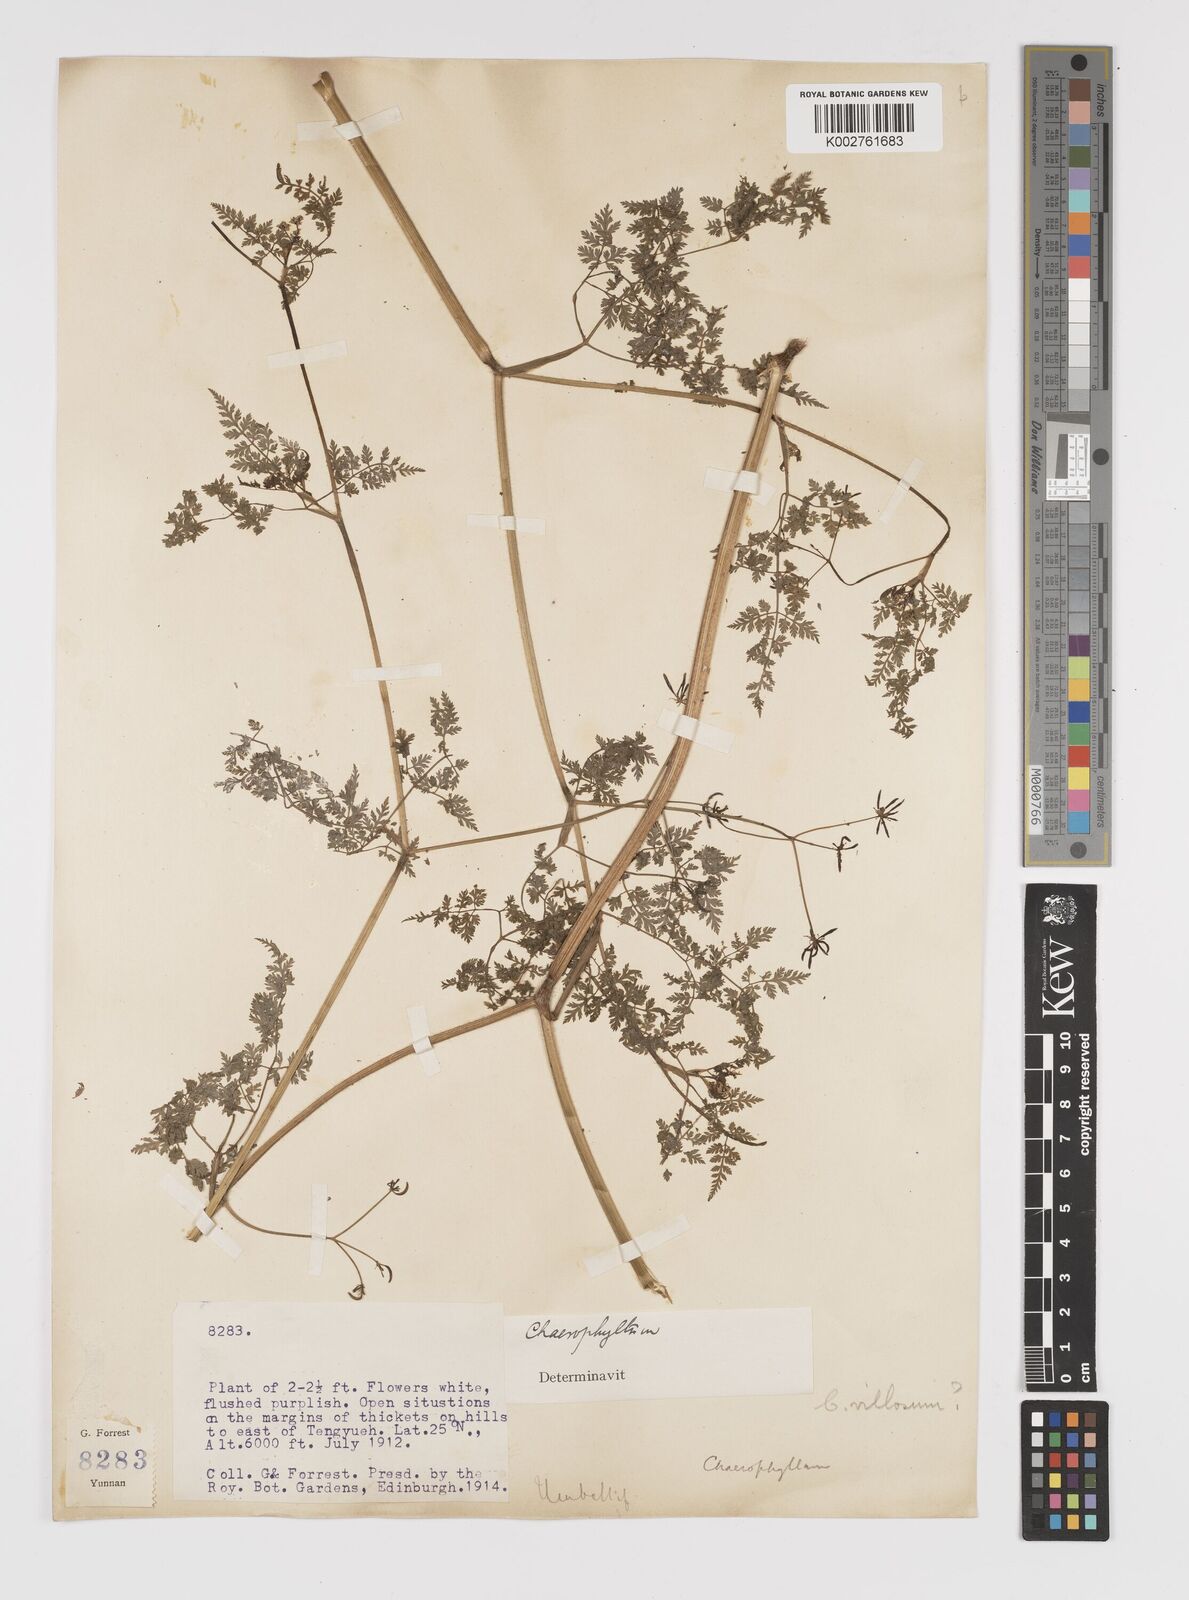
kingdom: Plantae
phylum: Tracheophyta
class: Magnoliopsida
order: Apiales
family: Apiaceae
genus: Chaerophyllum
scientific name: Chaerophyllum villosum
